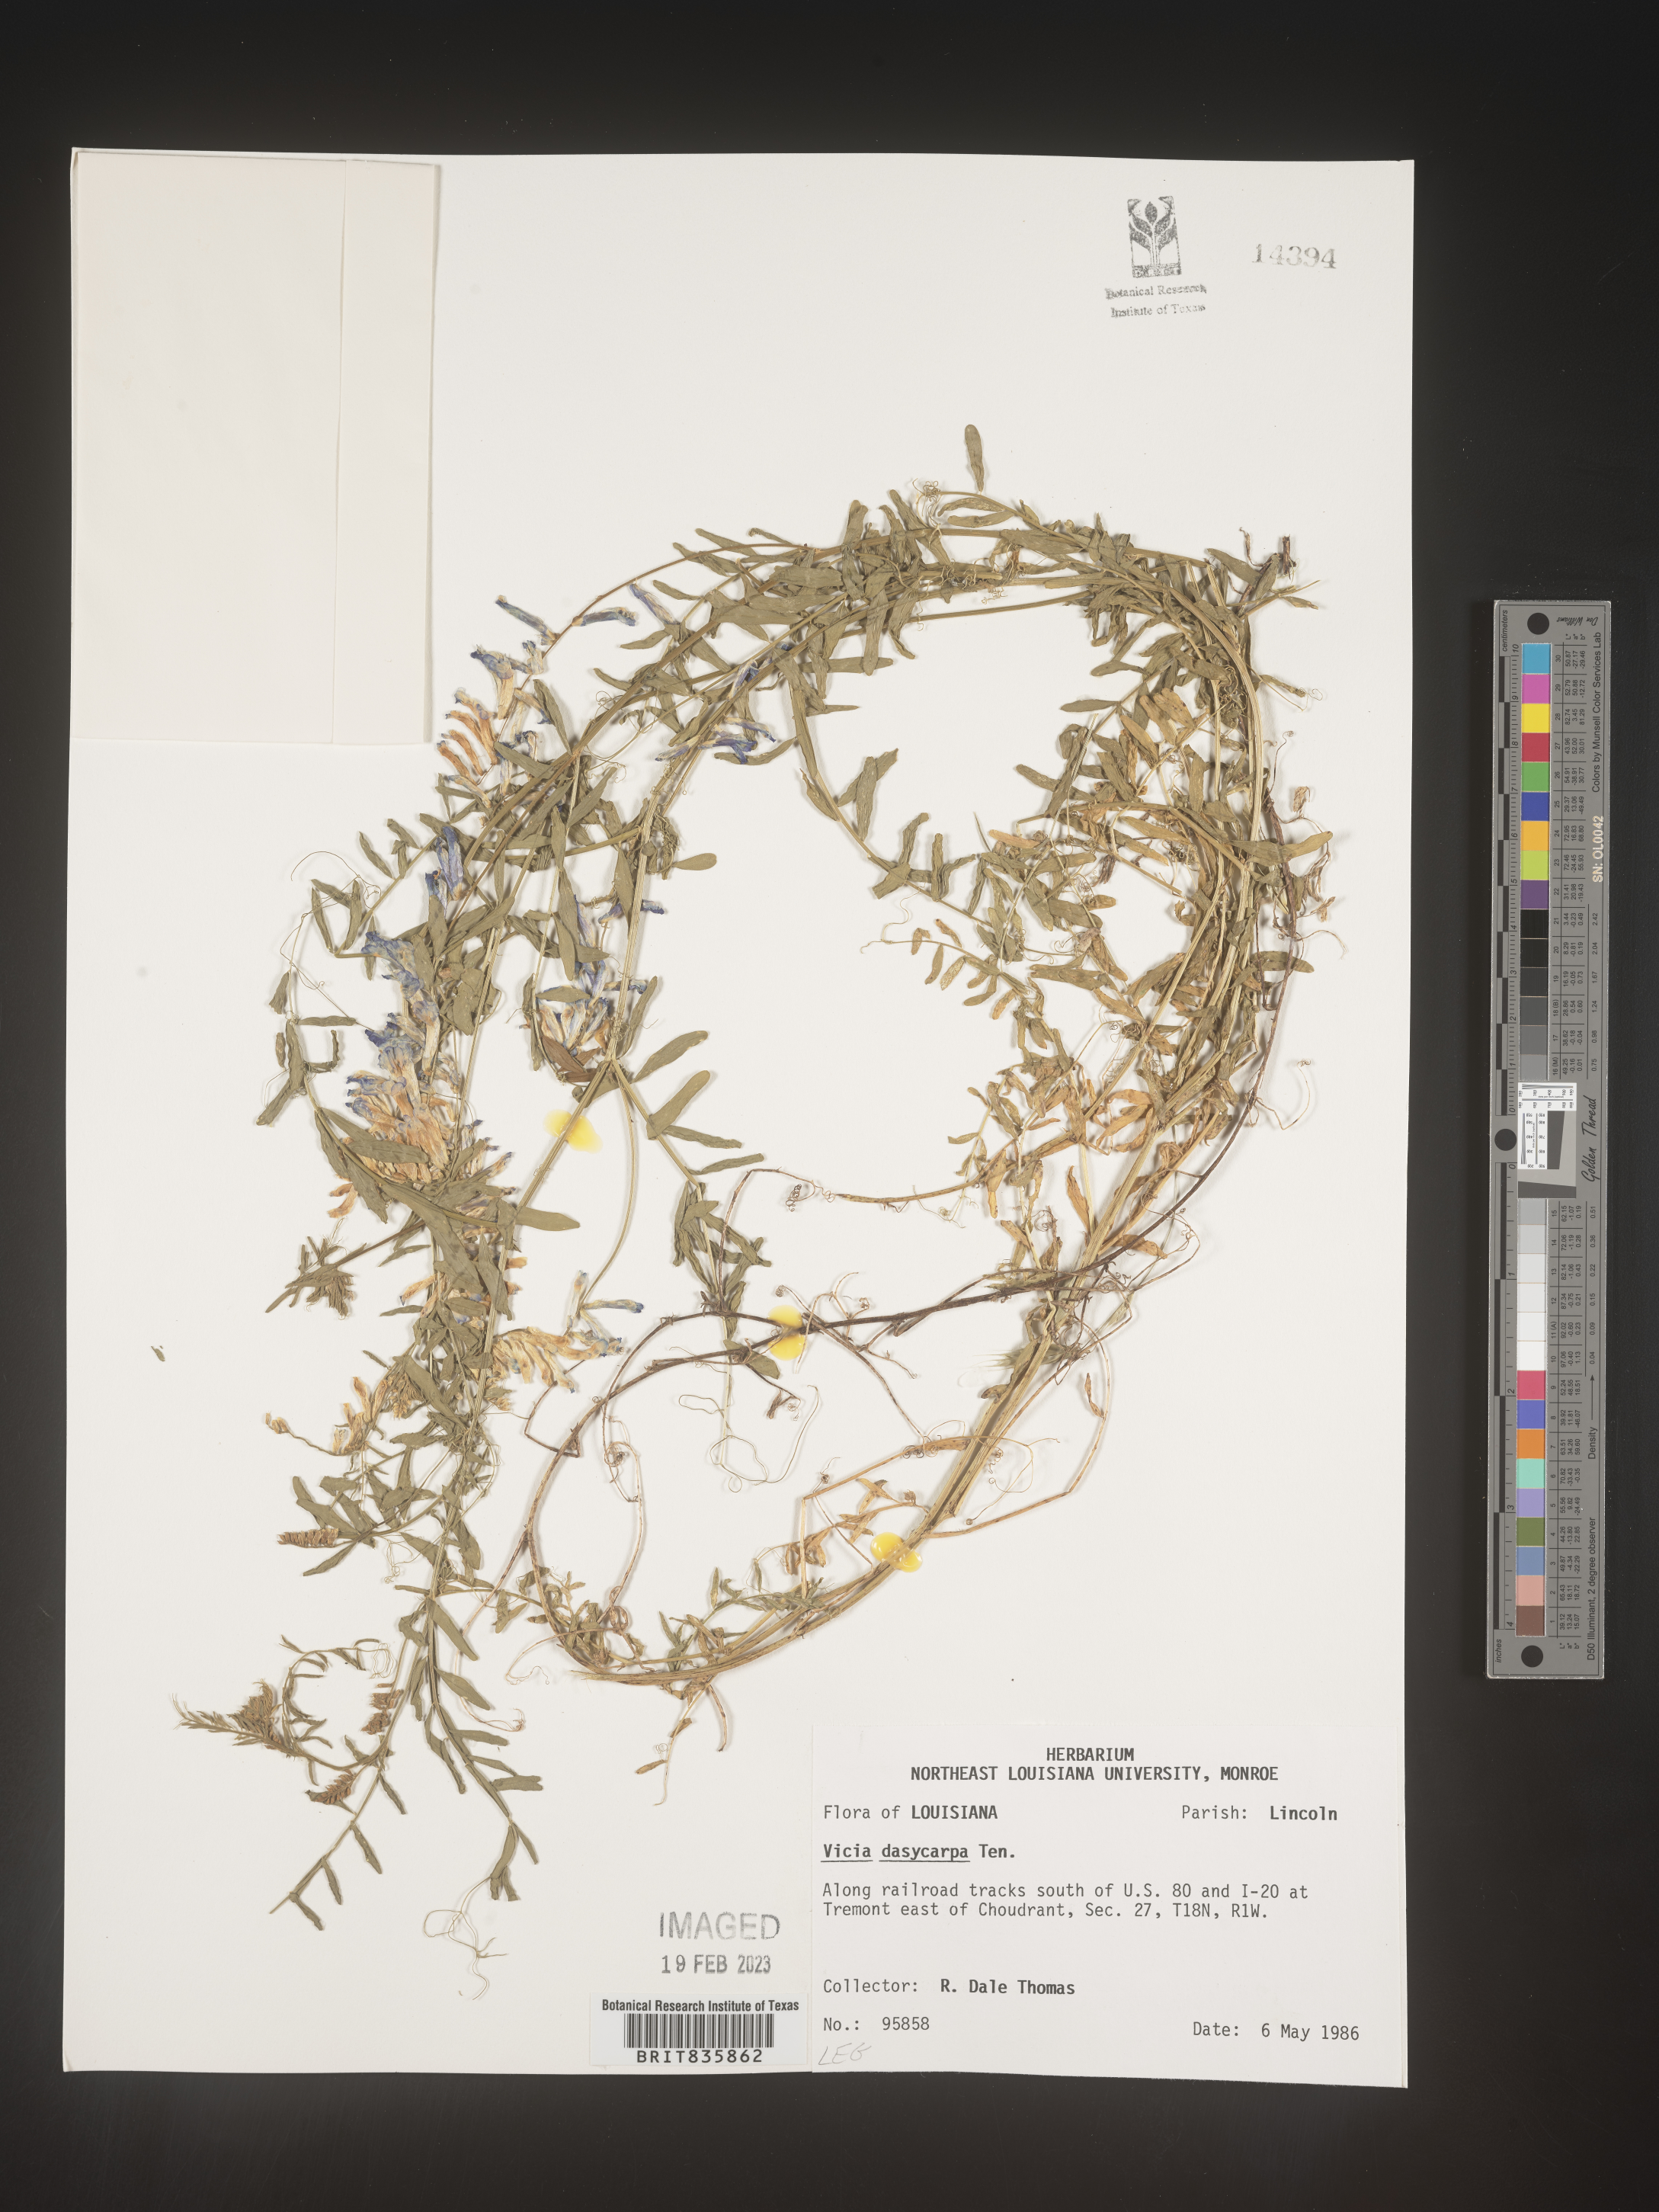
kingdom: Plantae
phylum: Tracheophyta
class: Magnoliopsida
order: Fabales
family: Fabaceae
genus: Vicia
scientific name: Vicia villosa
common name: Fodder vetch
